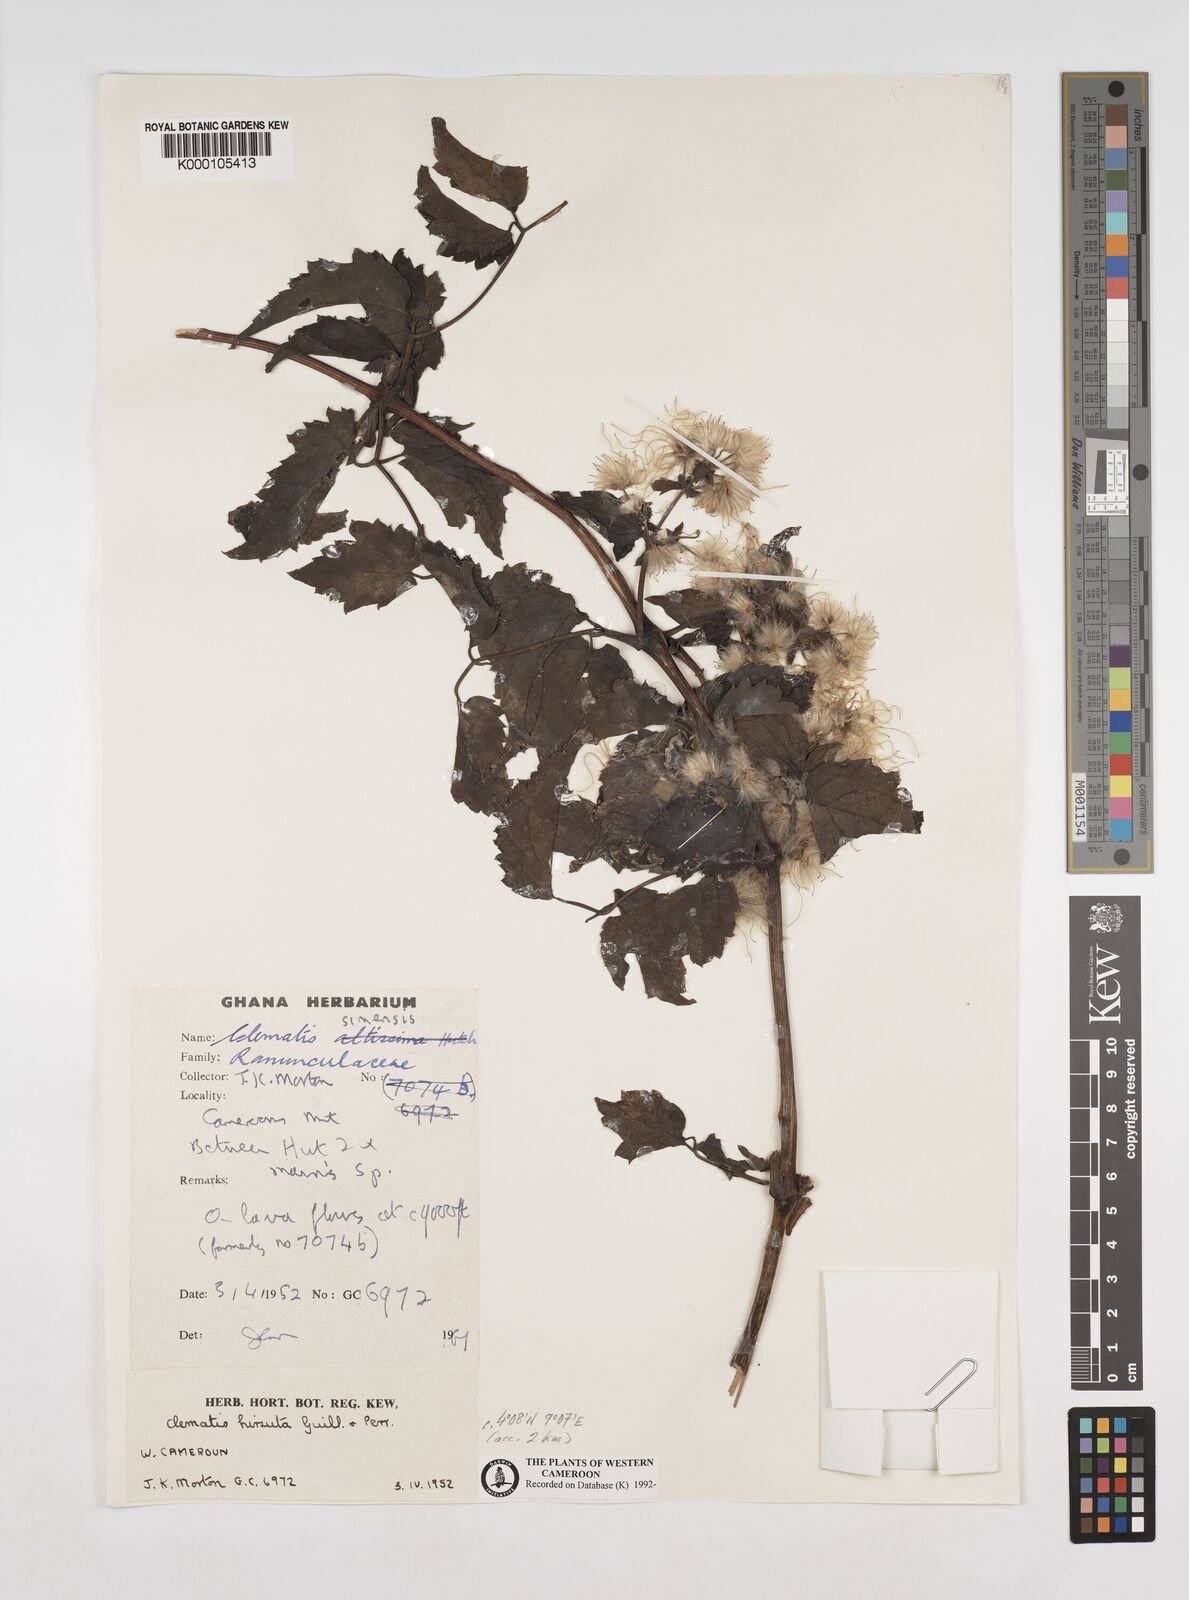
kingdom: Plantae
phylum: Tracheophyta
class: Magnoliopsida
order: Ranunculales
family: Ranunculaceae
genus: Clematis
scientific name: Clematis hirsuta
